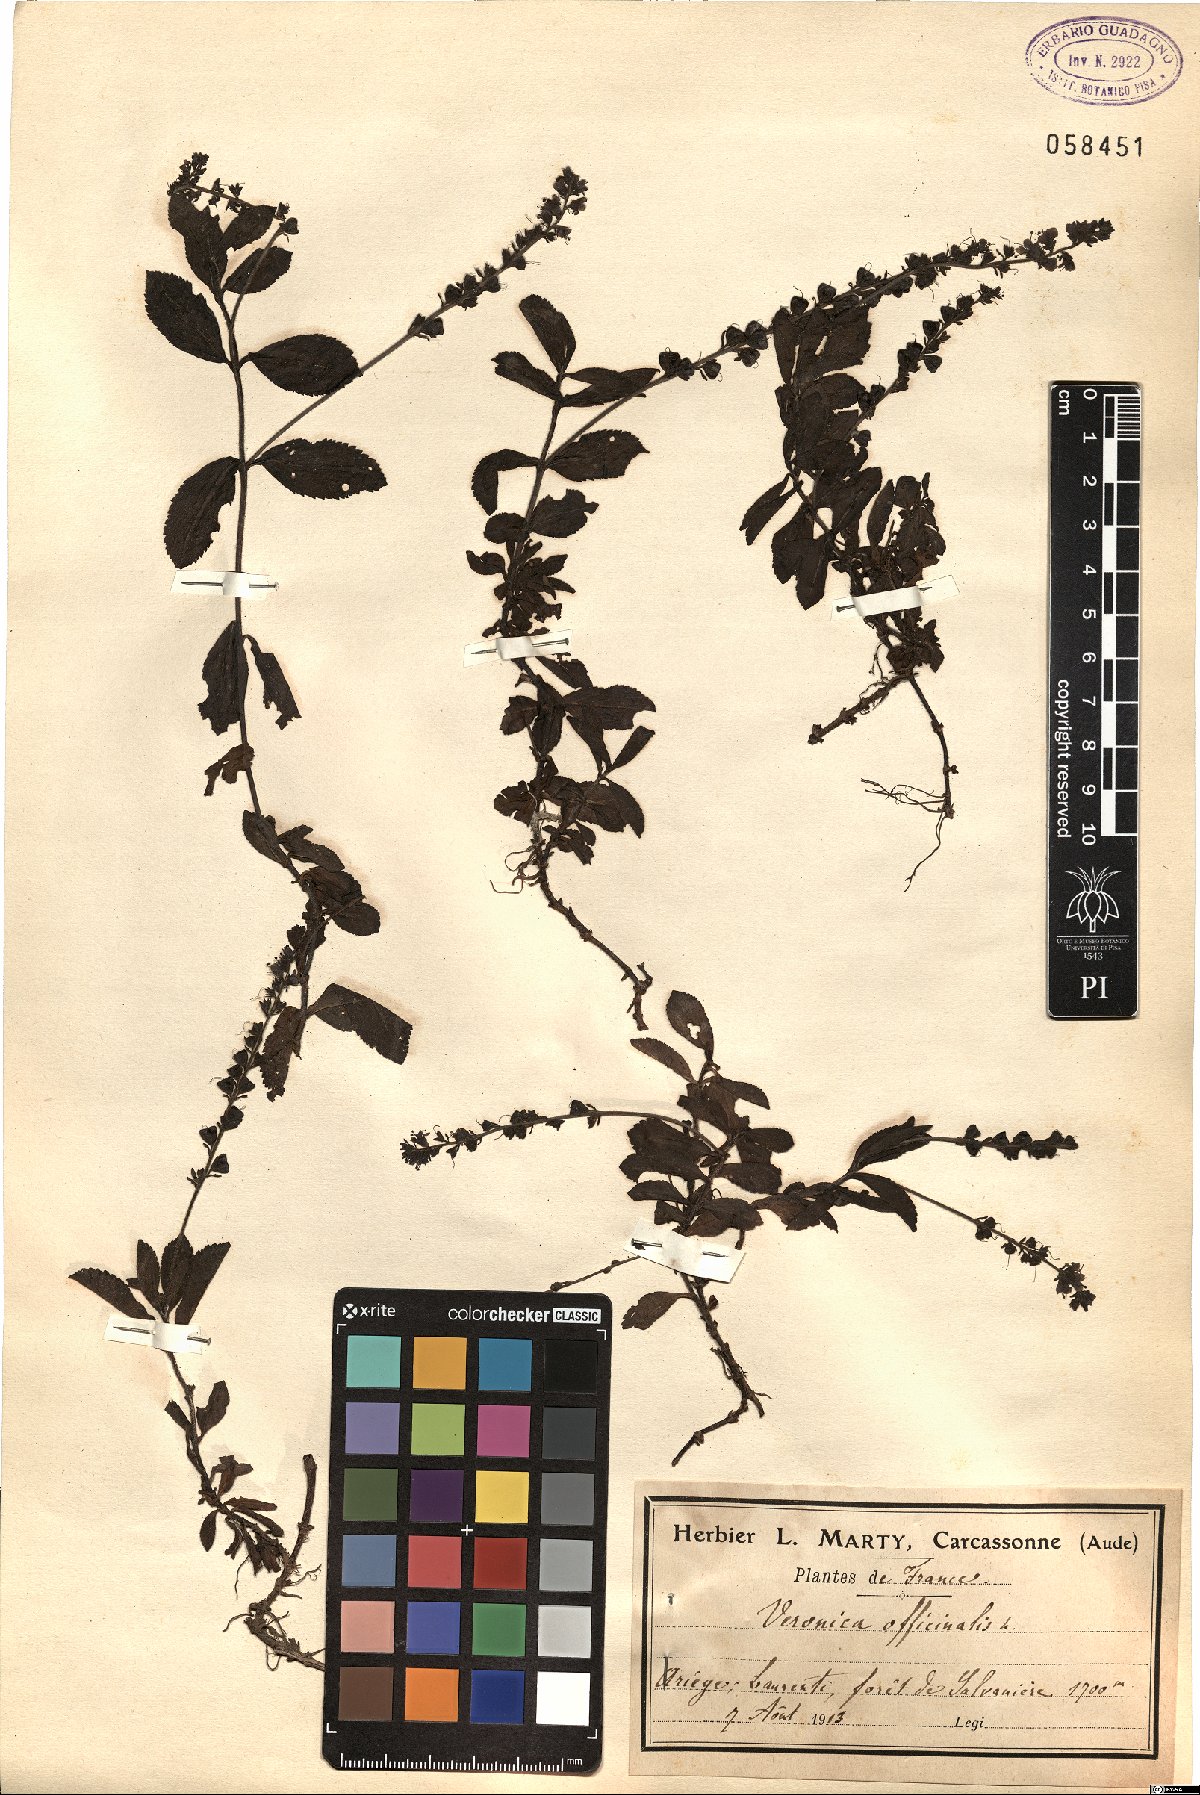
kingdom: Plantae
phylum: Tracheophyta
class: Magnoliopsida
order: Lamiales
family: Plantaginaceae
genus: Veronica
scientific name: Veronica officinalis
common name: Common speedwell
